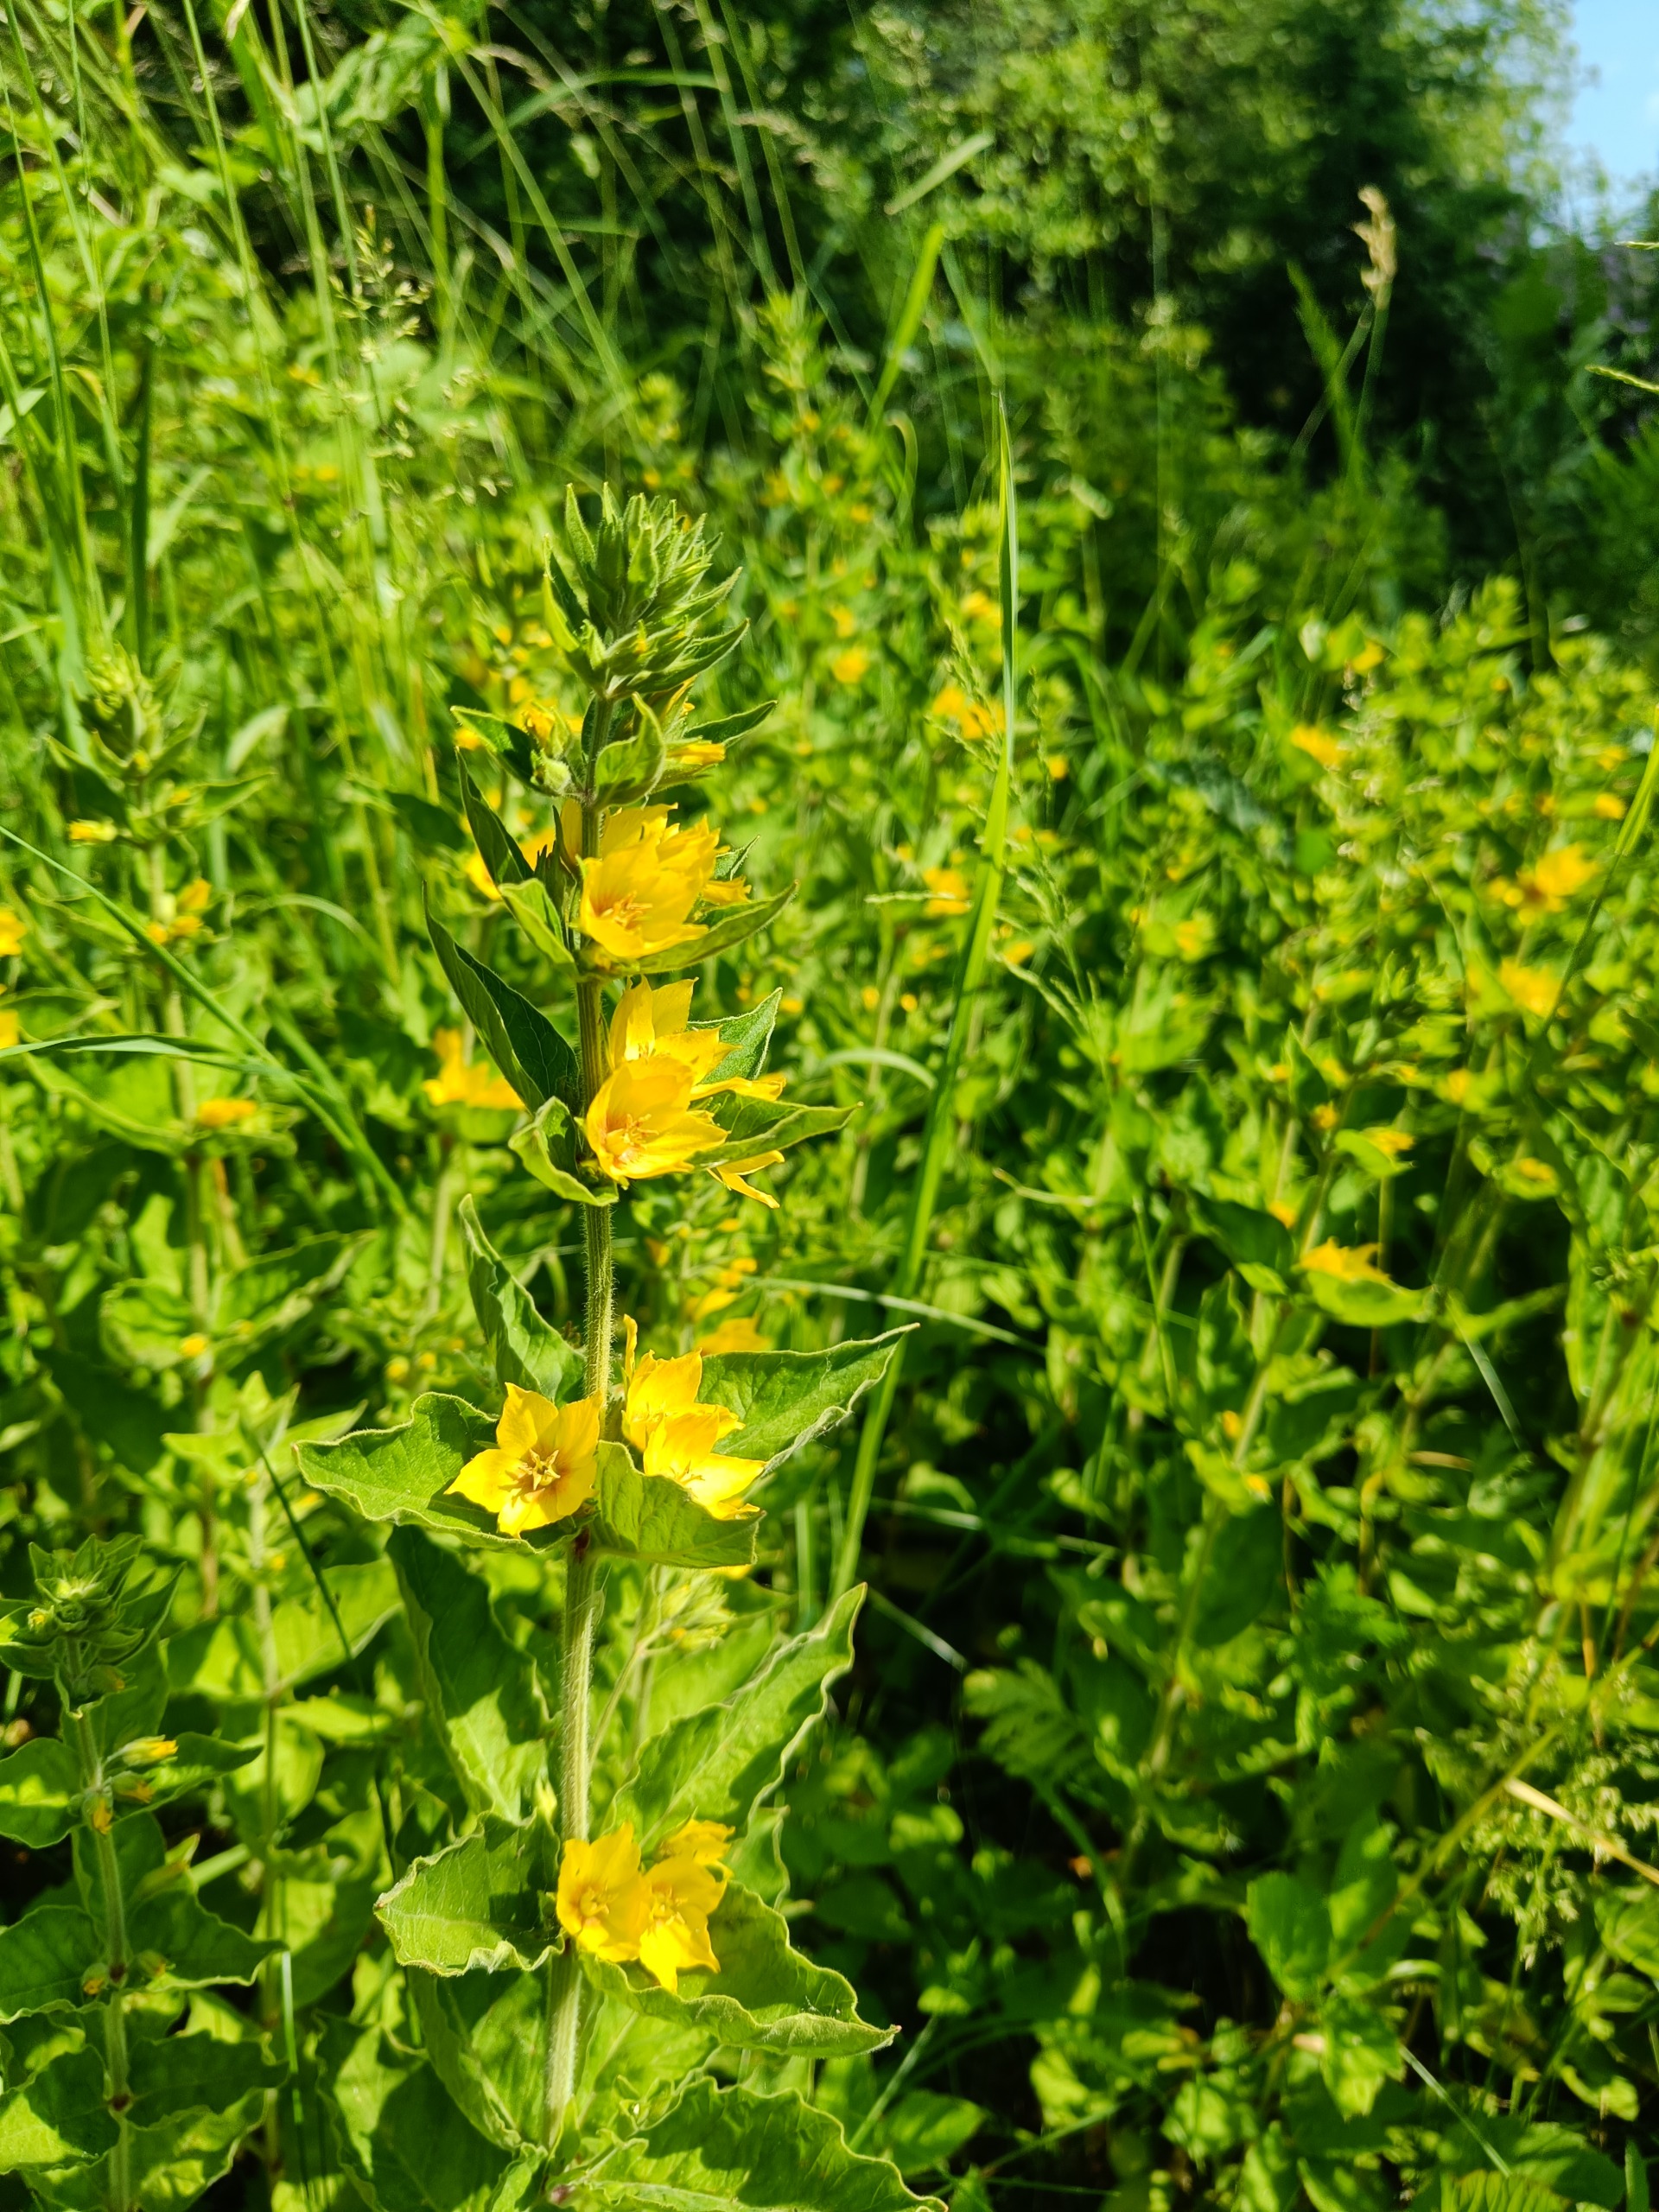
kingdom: Plantae
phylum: Tracheophyta
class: Magnoliopsida
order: Ericales
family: Primulaceae
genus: Lysimachia
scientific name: Lysimachia punctata
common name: Prikbladet fredløs
